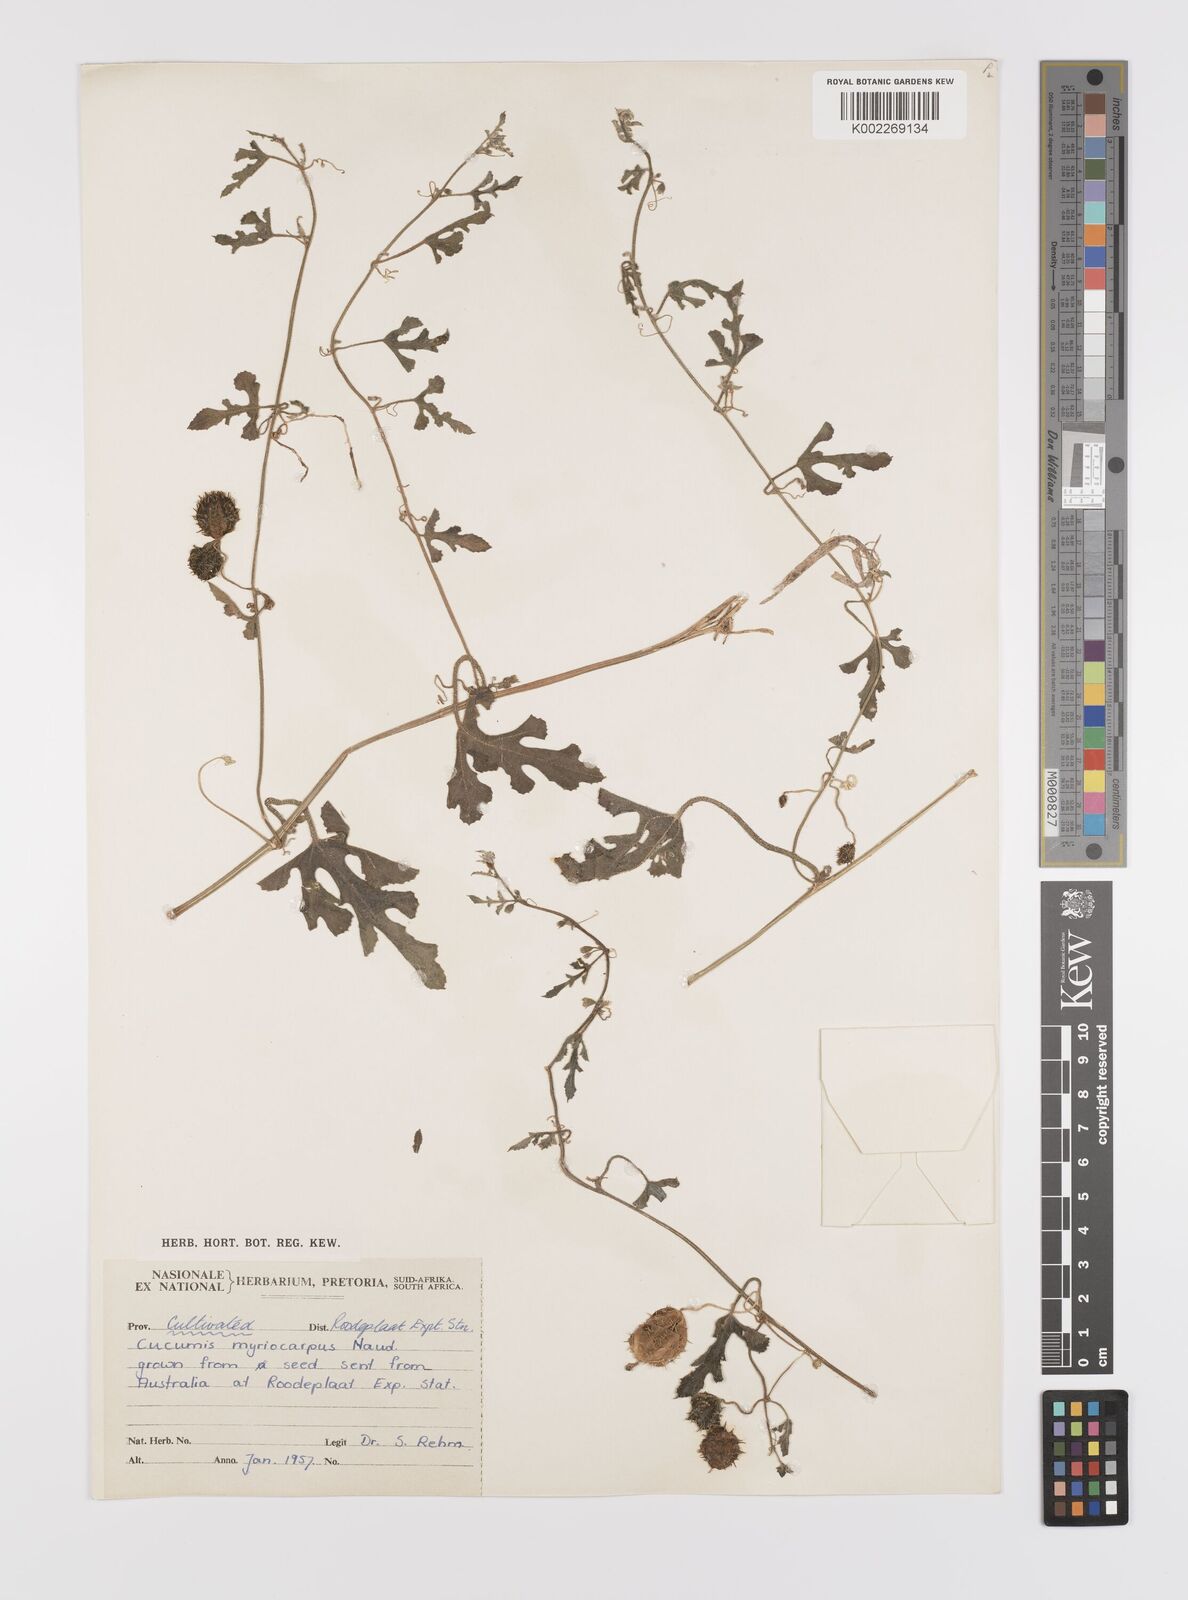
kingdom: Plantae
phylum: Tracheophyta
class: Magnoliopsida
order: Cucurbitales
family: Cucurbitaceae
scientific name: Cucurbitaceae
